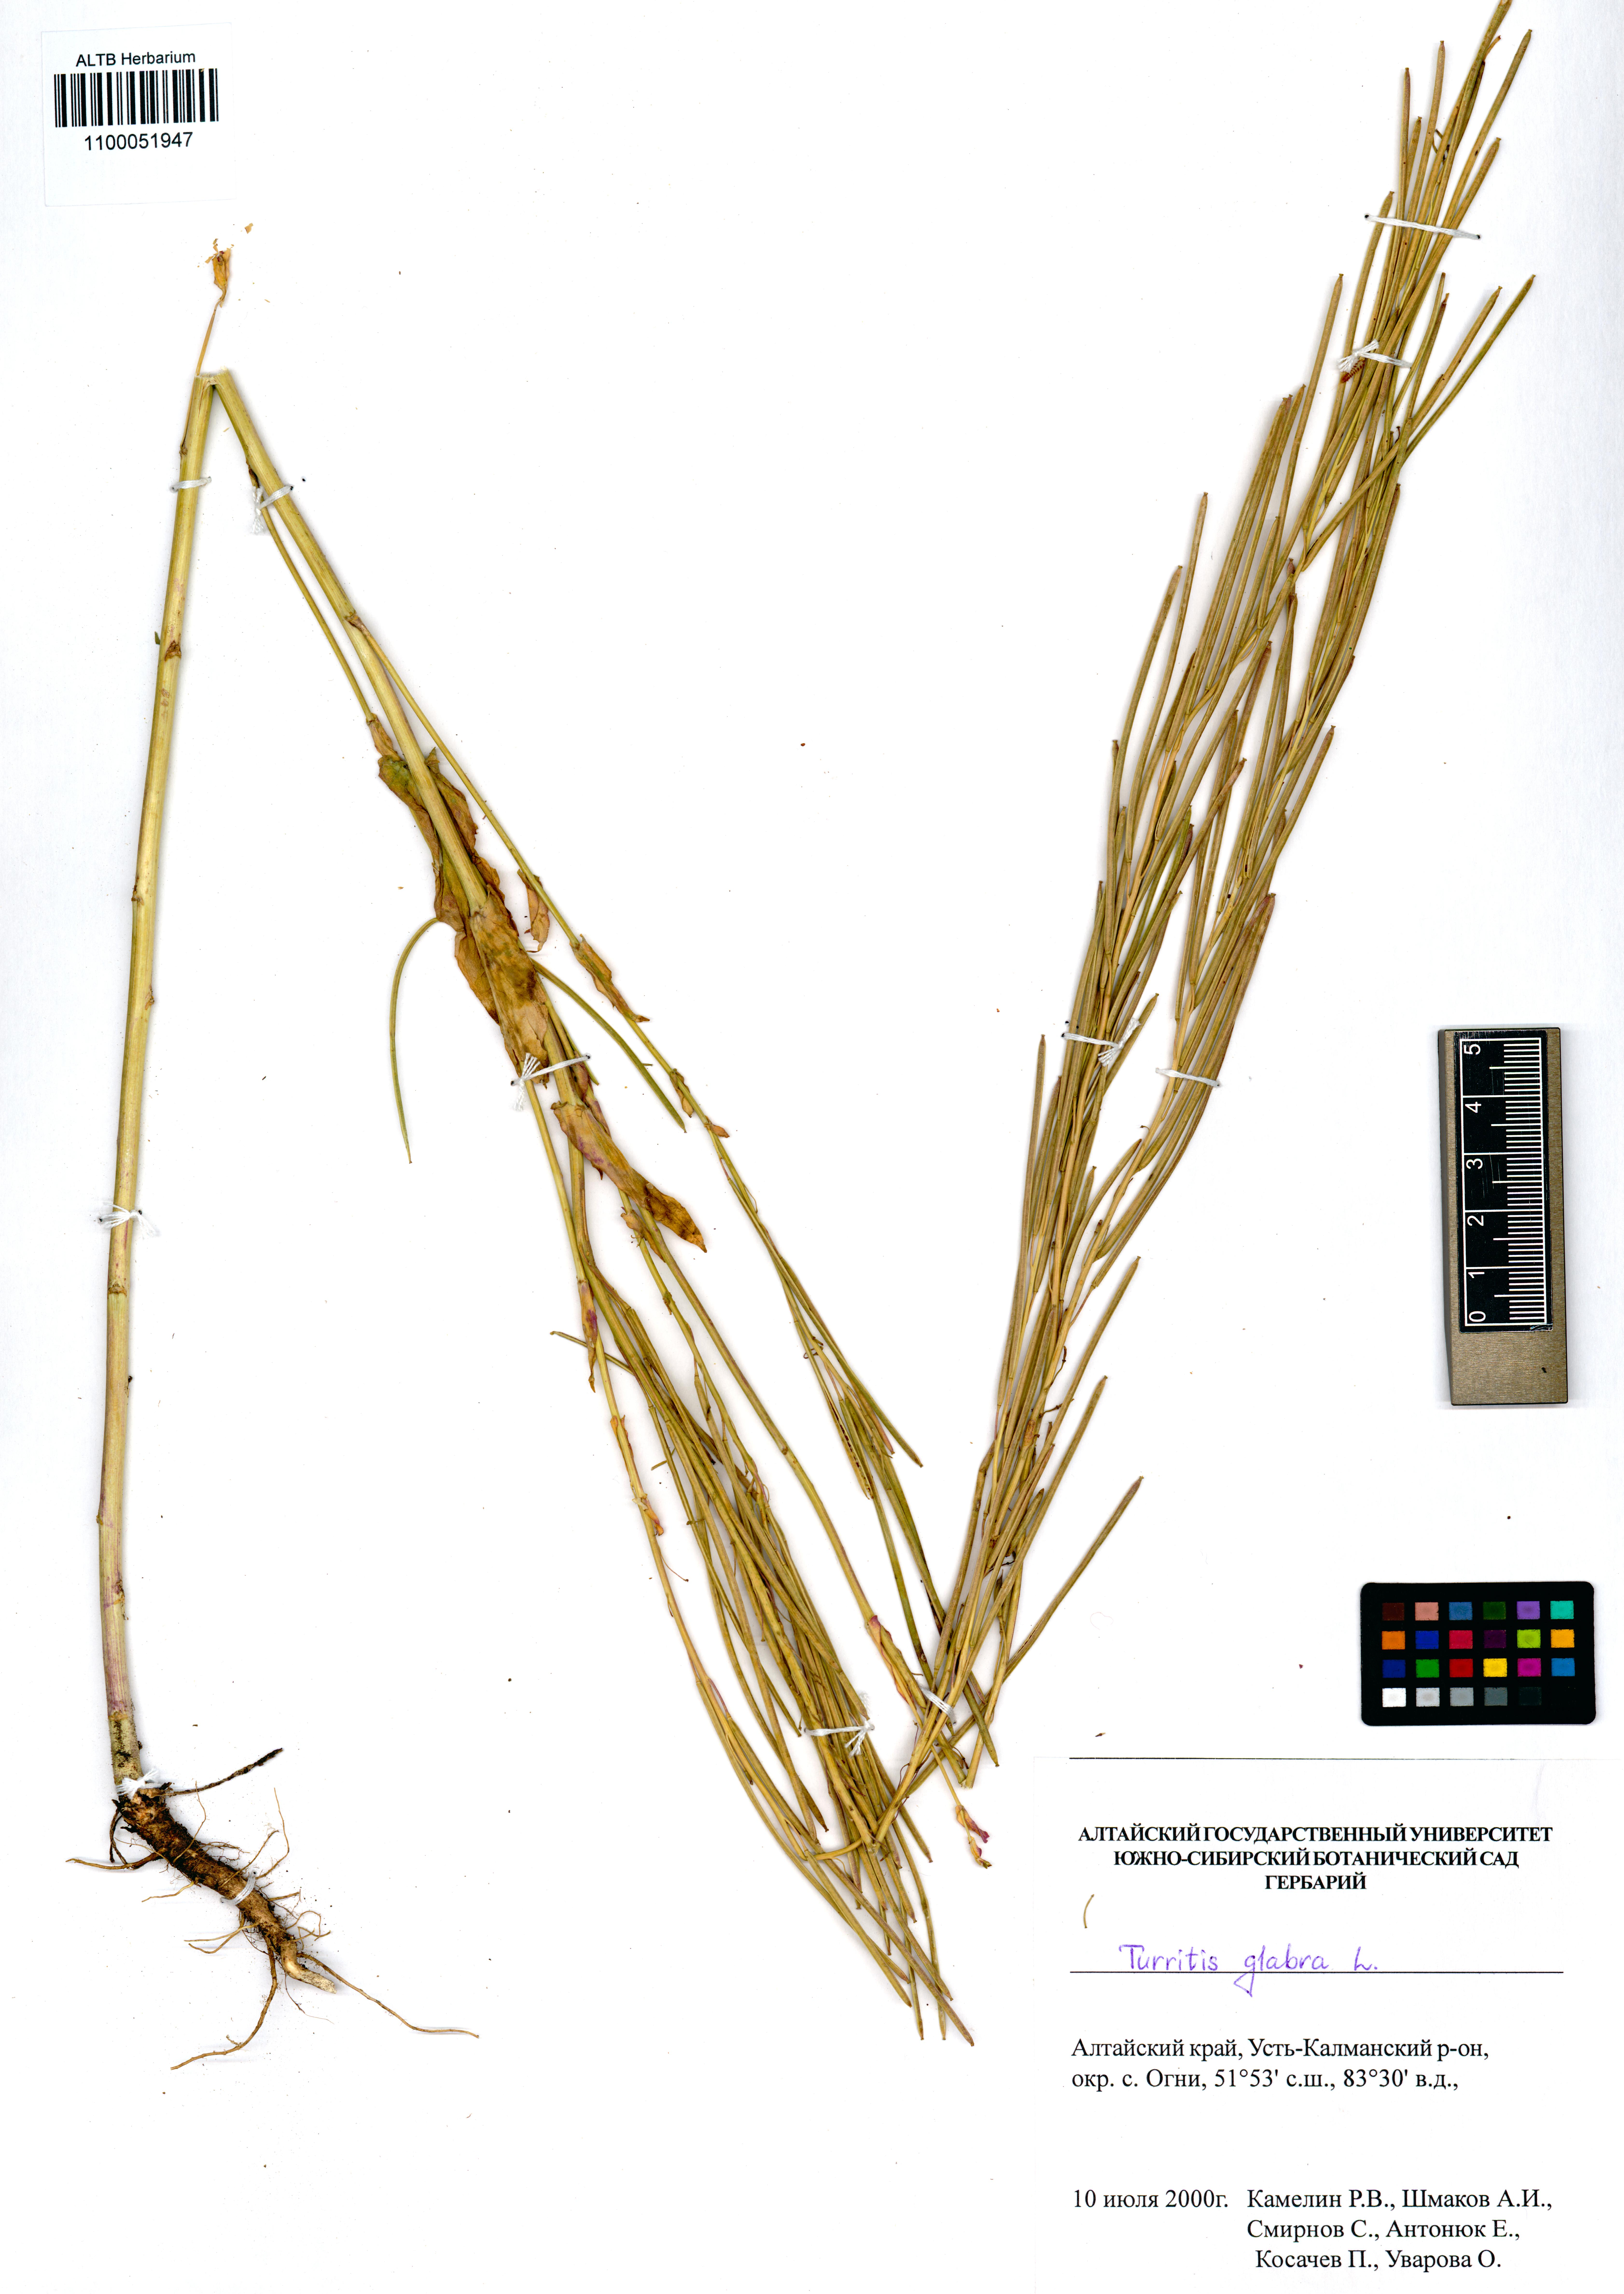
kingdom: Plantae
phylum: Tracheophyta
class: Magnoliopsida
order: Brassicales
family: Brassicaceae
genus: Turritis
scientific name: Turritis glabra
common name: Tower rockcress
